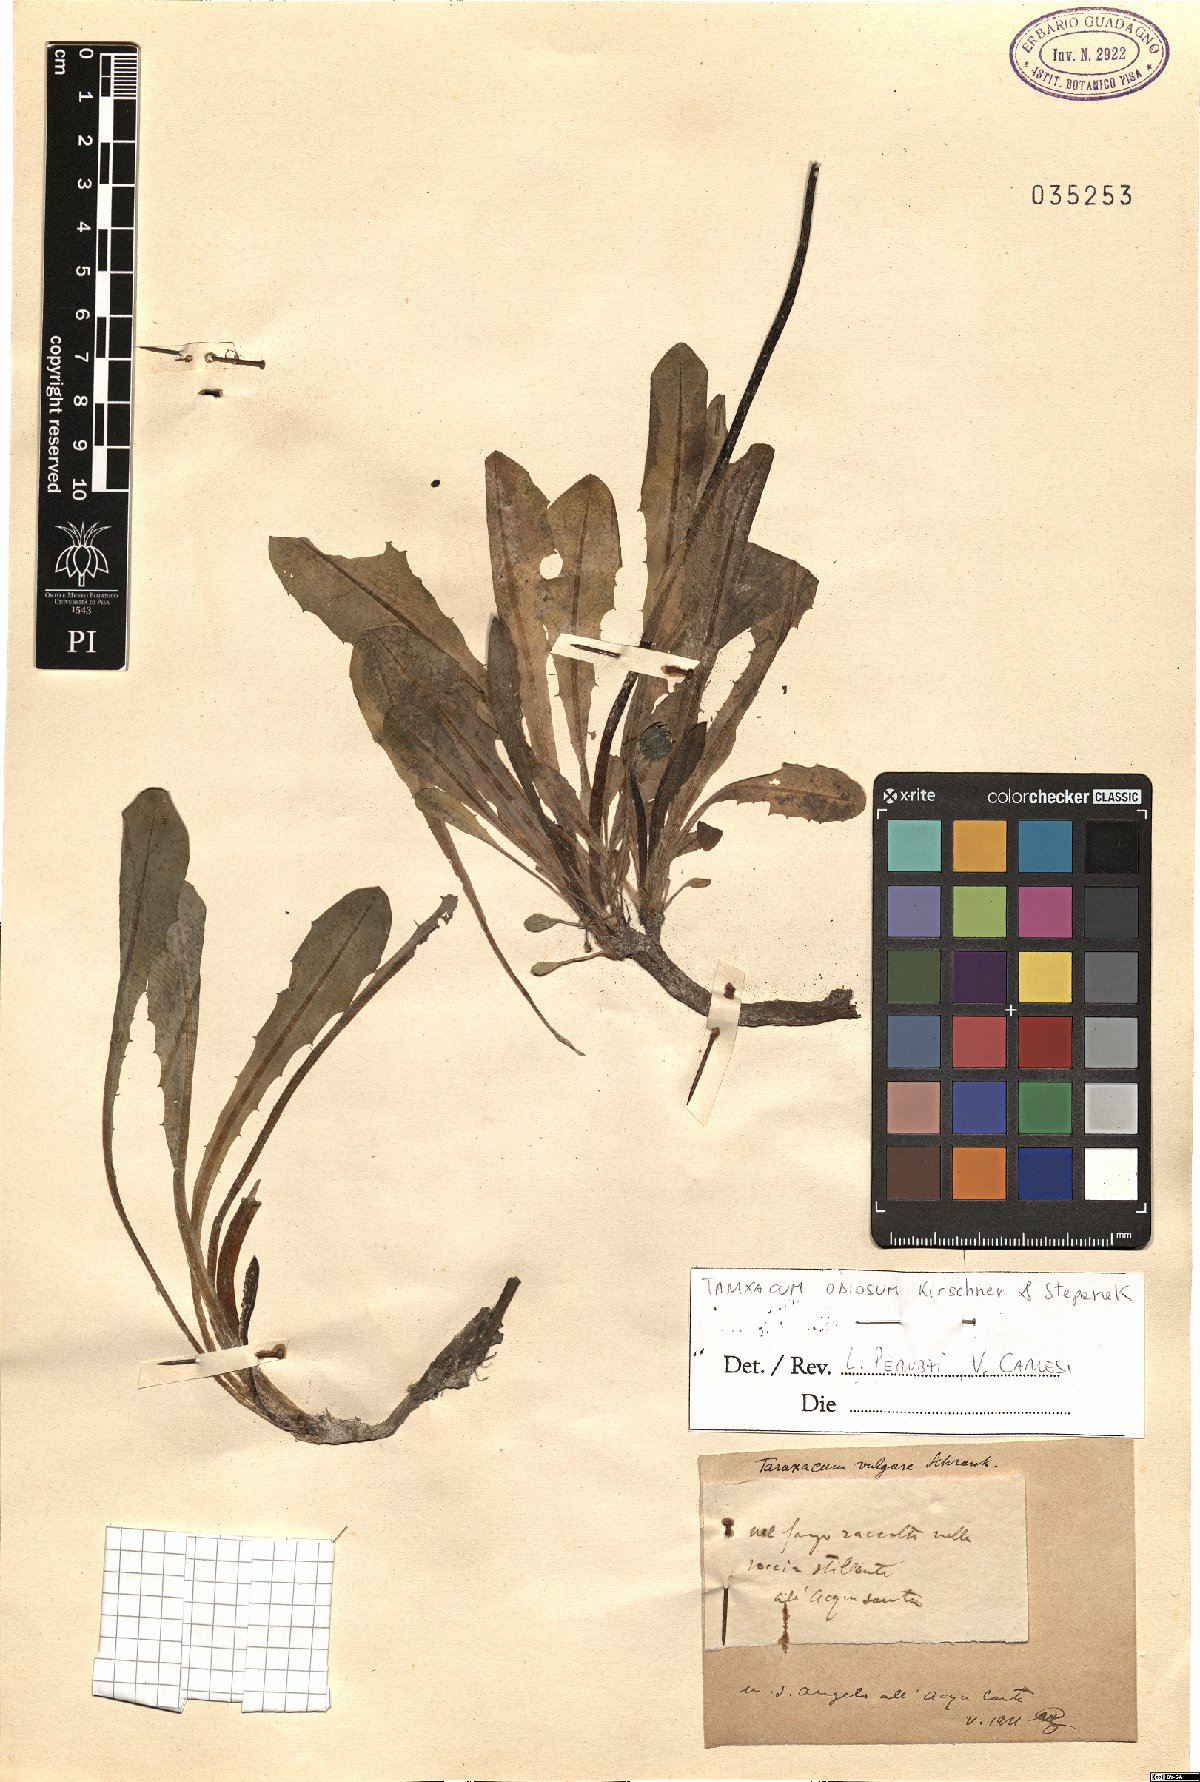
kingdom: Plantae
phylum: Tracheophyta
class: Magnoliopsida
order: Asterales
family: Asteraceae
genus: Taraxacum
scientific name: Taraxacum odiosum
